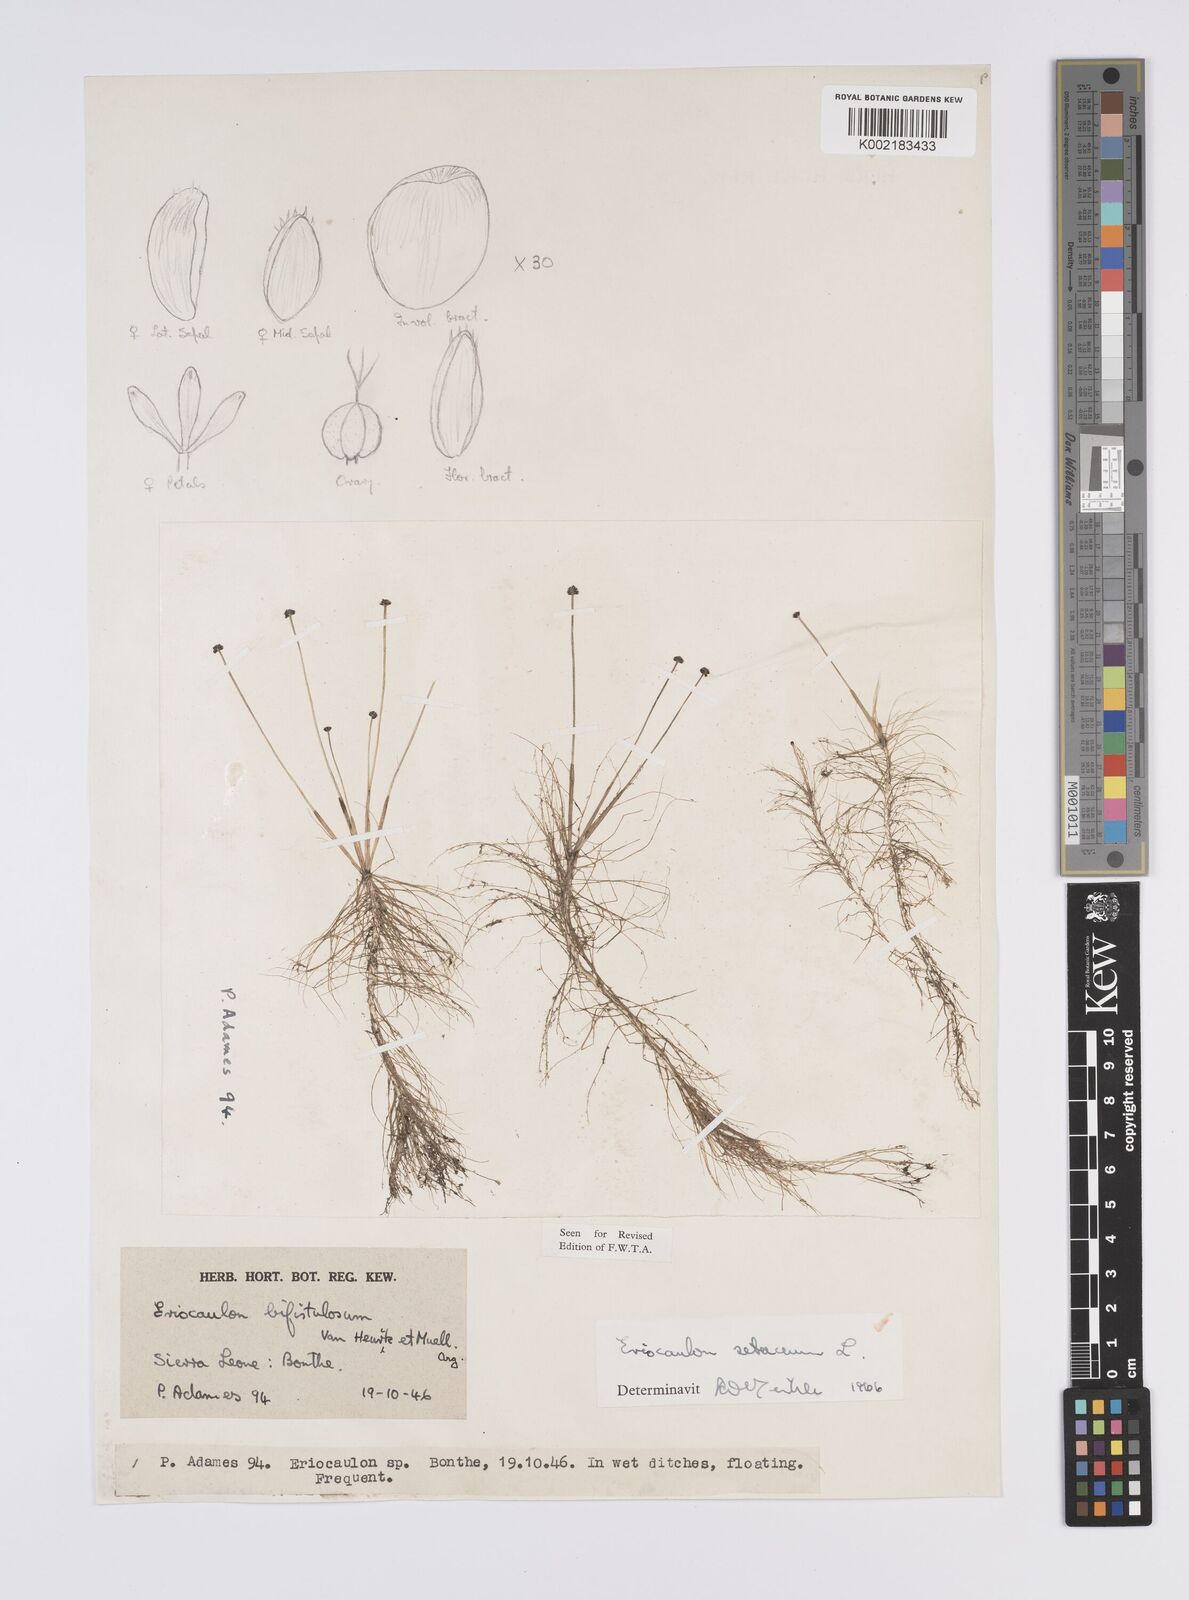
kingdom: Plantae
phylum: Tracheophyta
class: Liliopsida
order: Poales
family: Eriocaulaceae
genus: Eriocaulon
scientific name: Eriocaulon setaceum
